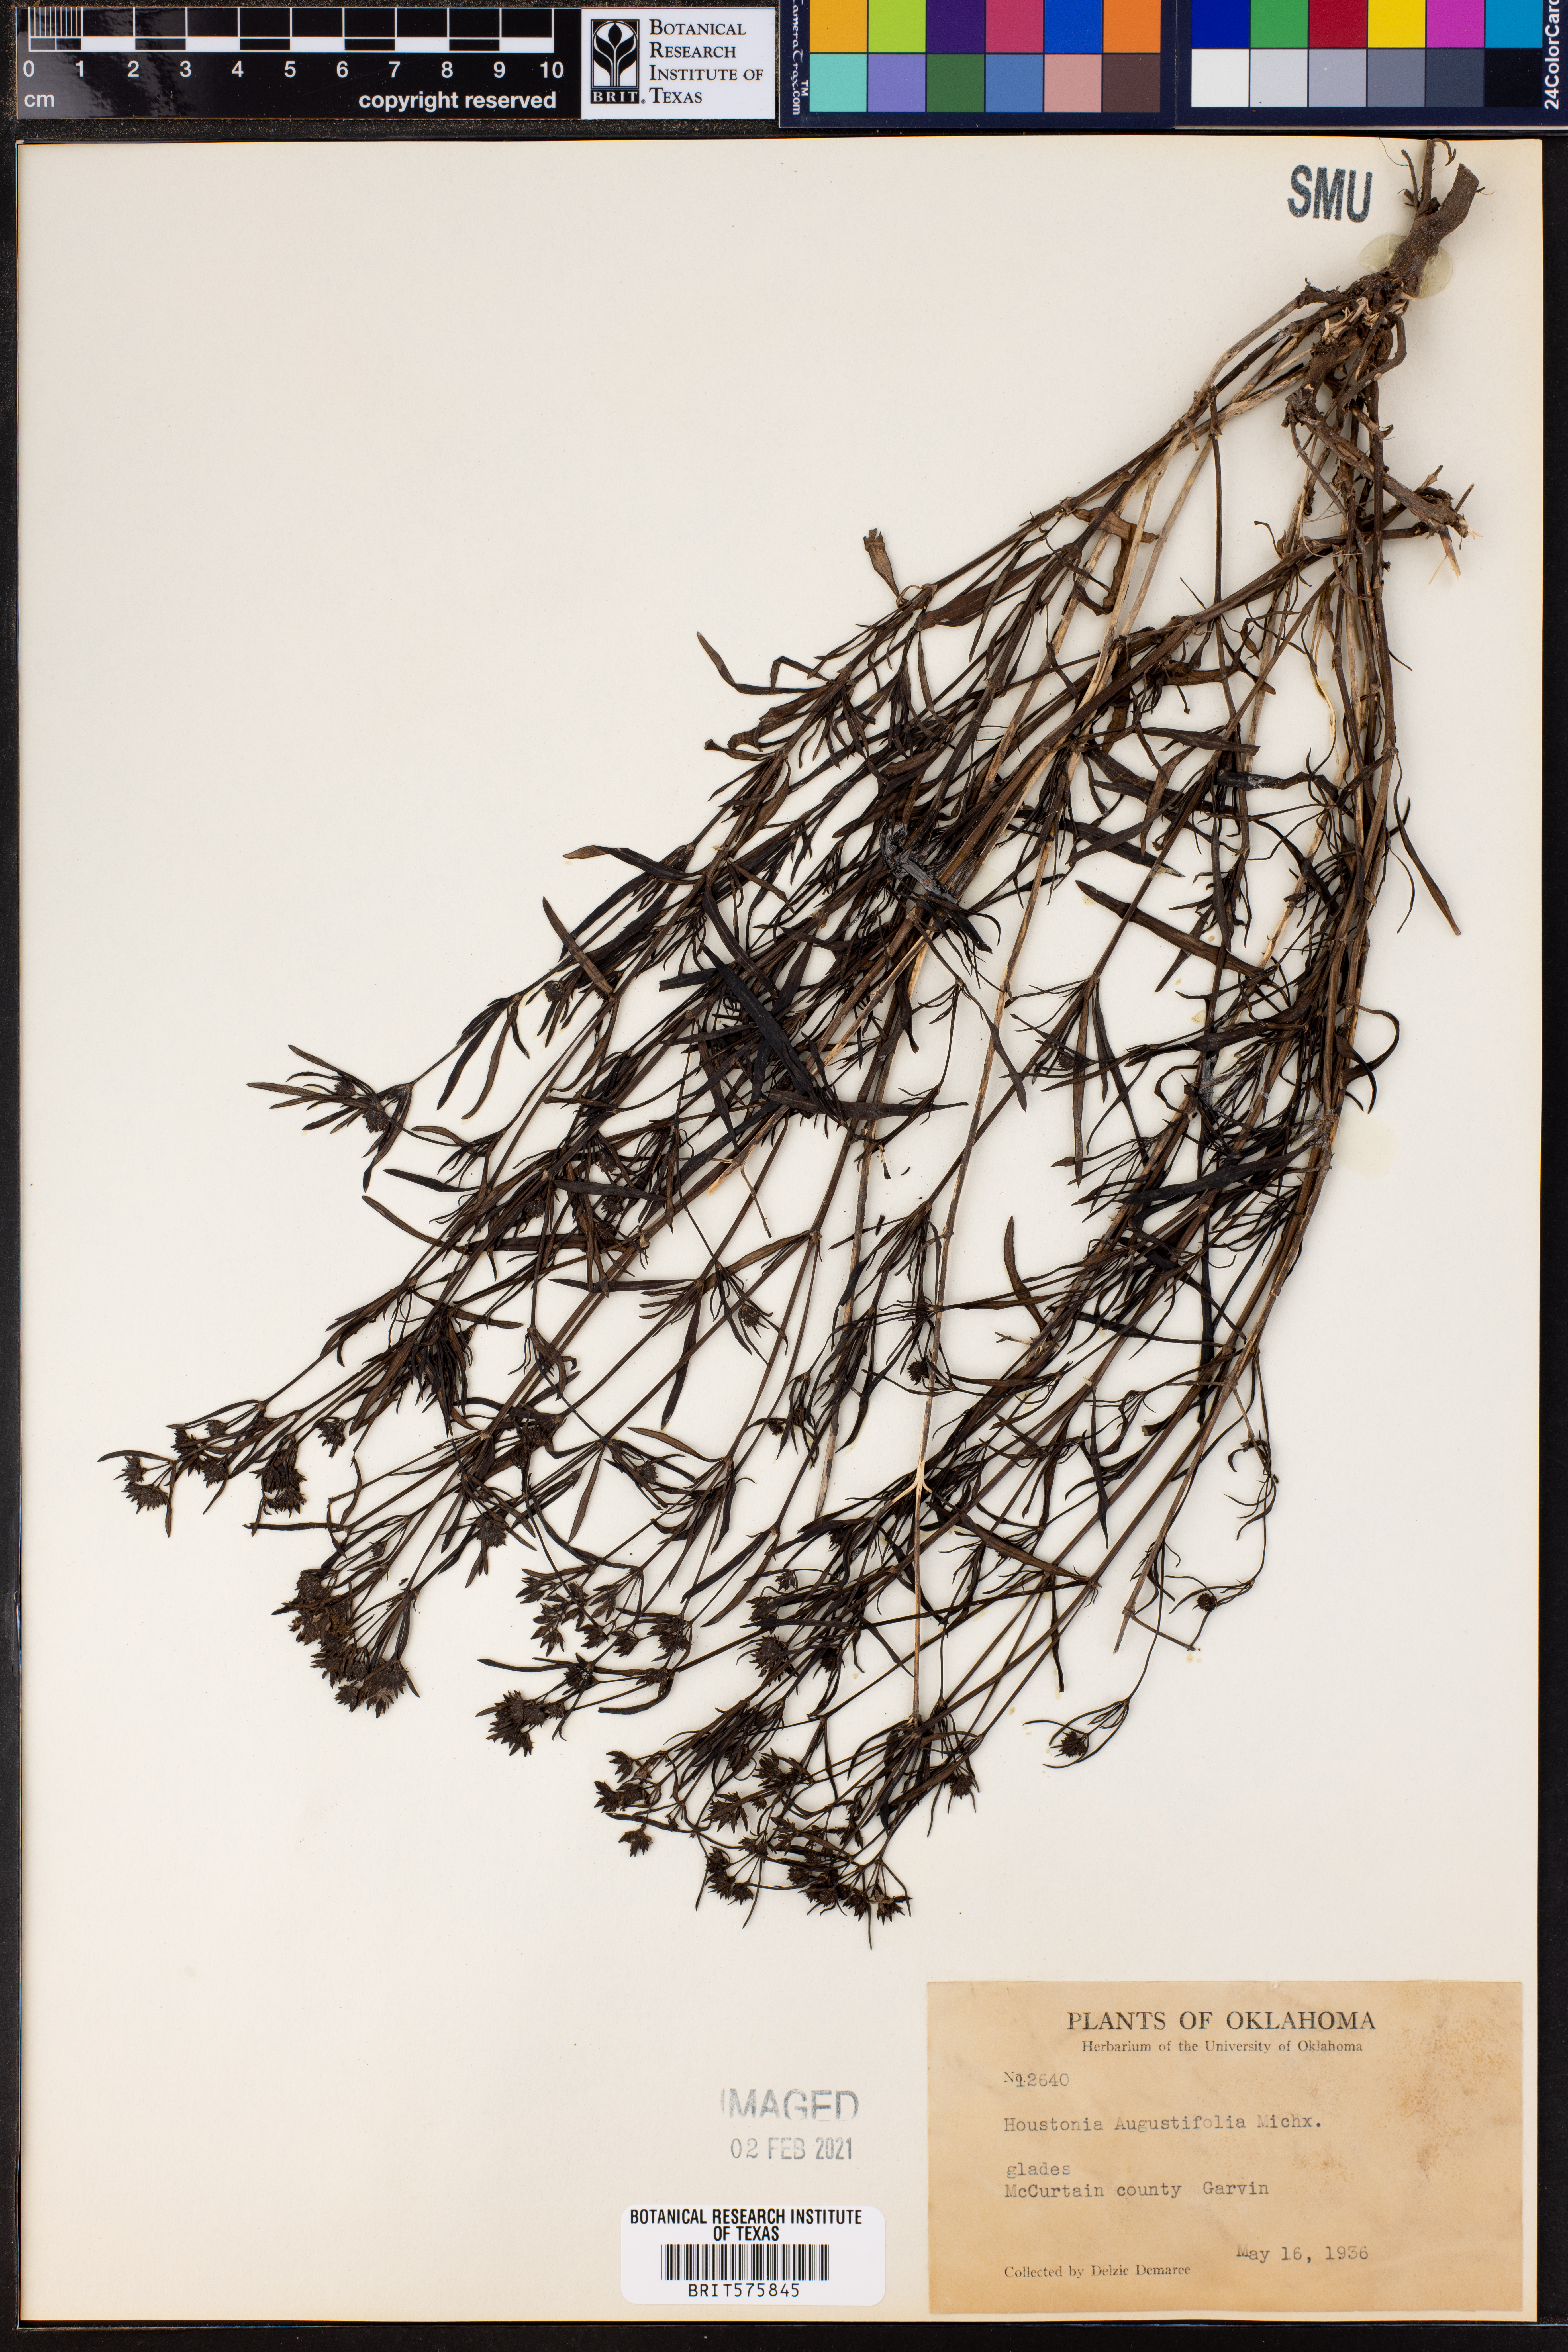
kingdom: Plantae
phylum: Tracheophyta
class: Magnoliopsida
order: Gentianales
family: Rubiaceae
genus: Stenaria
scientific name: Stenaria nigricans
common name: Diamondflowers
